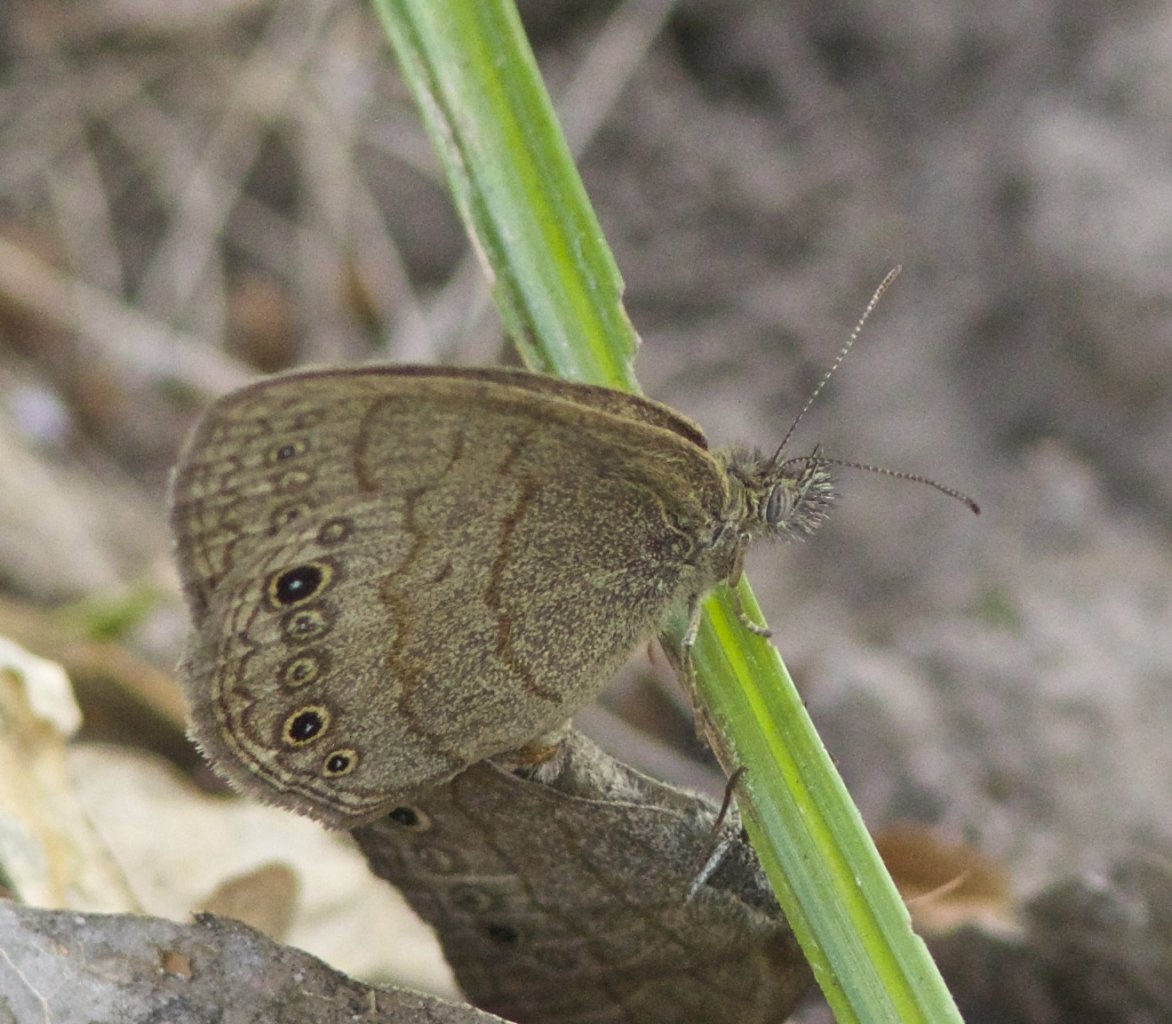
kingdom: Animalia
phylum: Arthropoda
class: Insecta
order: Lepidoptera
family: Nymphalidae
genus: Hermeuptychia
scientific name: Hermeuptychia hermybius
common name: South Texas Satyr
